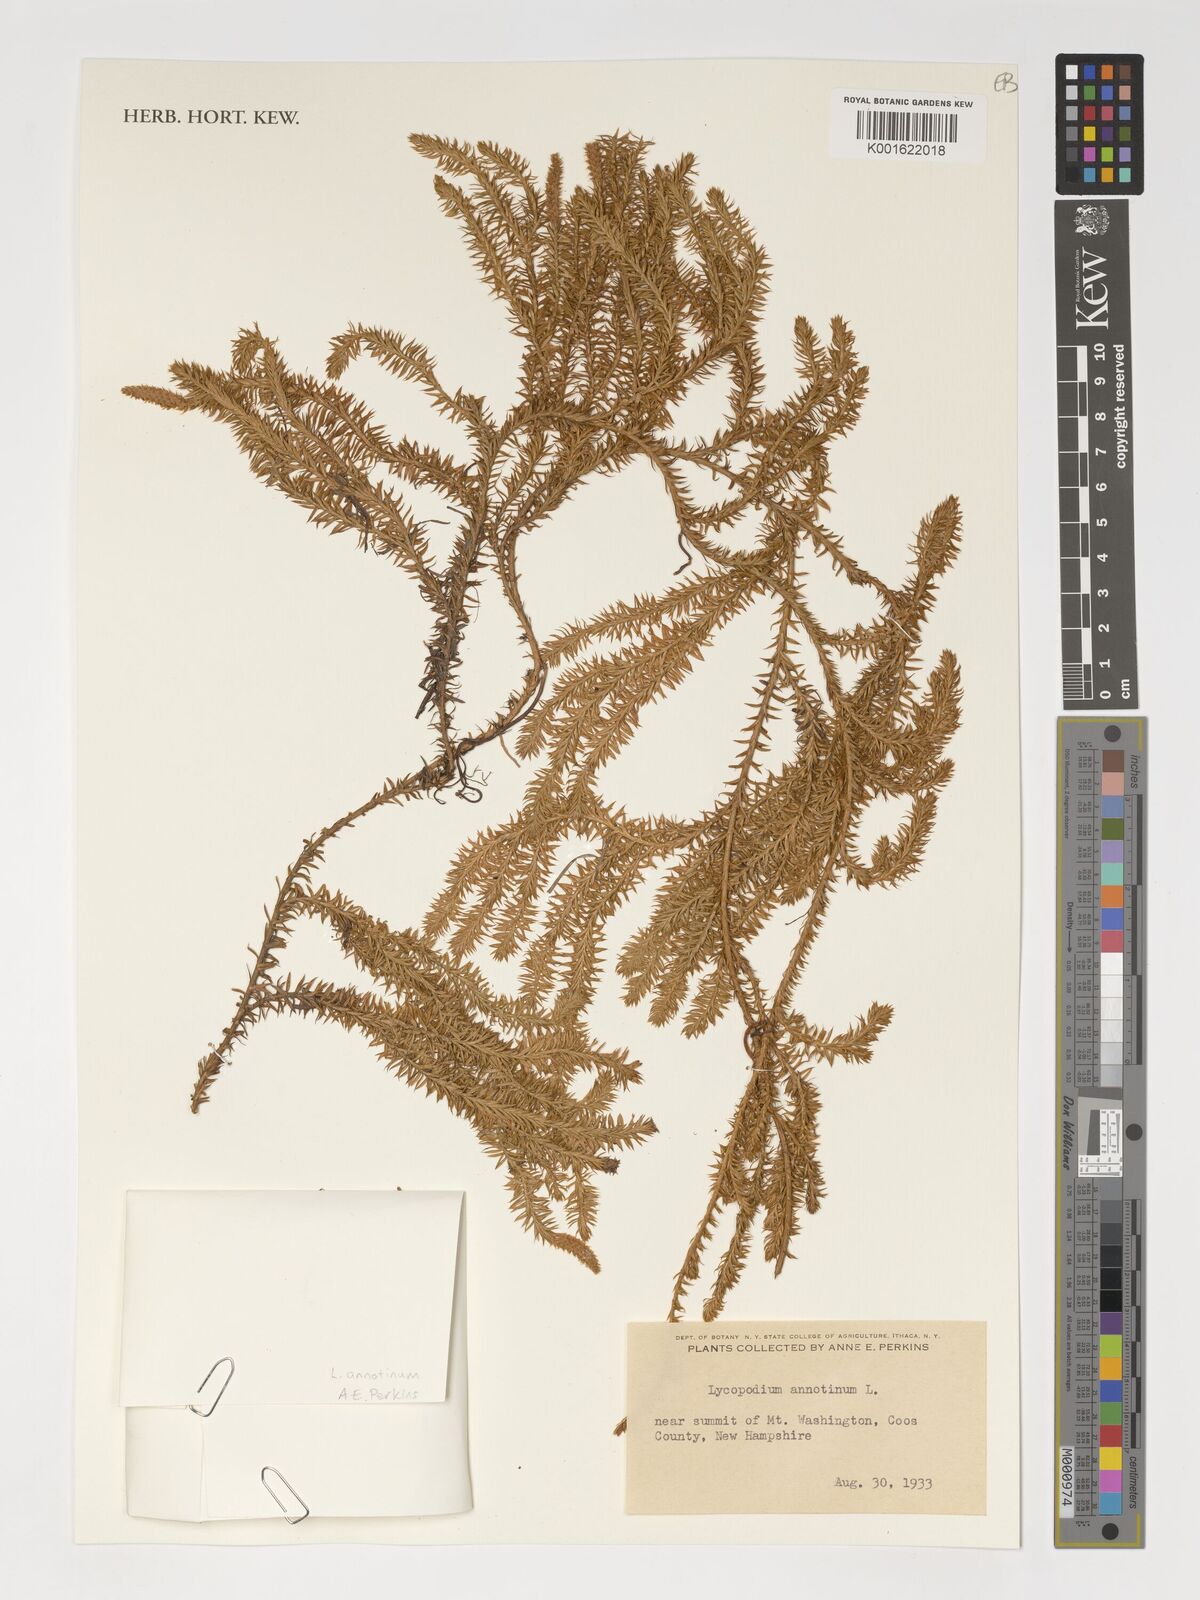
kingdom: Plantae
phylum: Tracheophyta
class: Lycopodiopsida
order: Lycopodiales
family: Lycopodiaceae
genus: Spinulum
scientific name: Spinulum annotinum
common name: Interrupted club-moss
